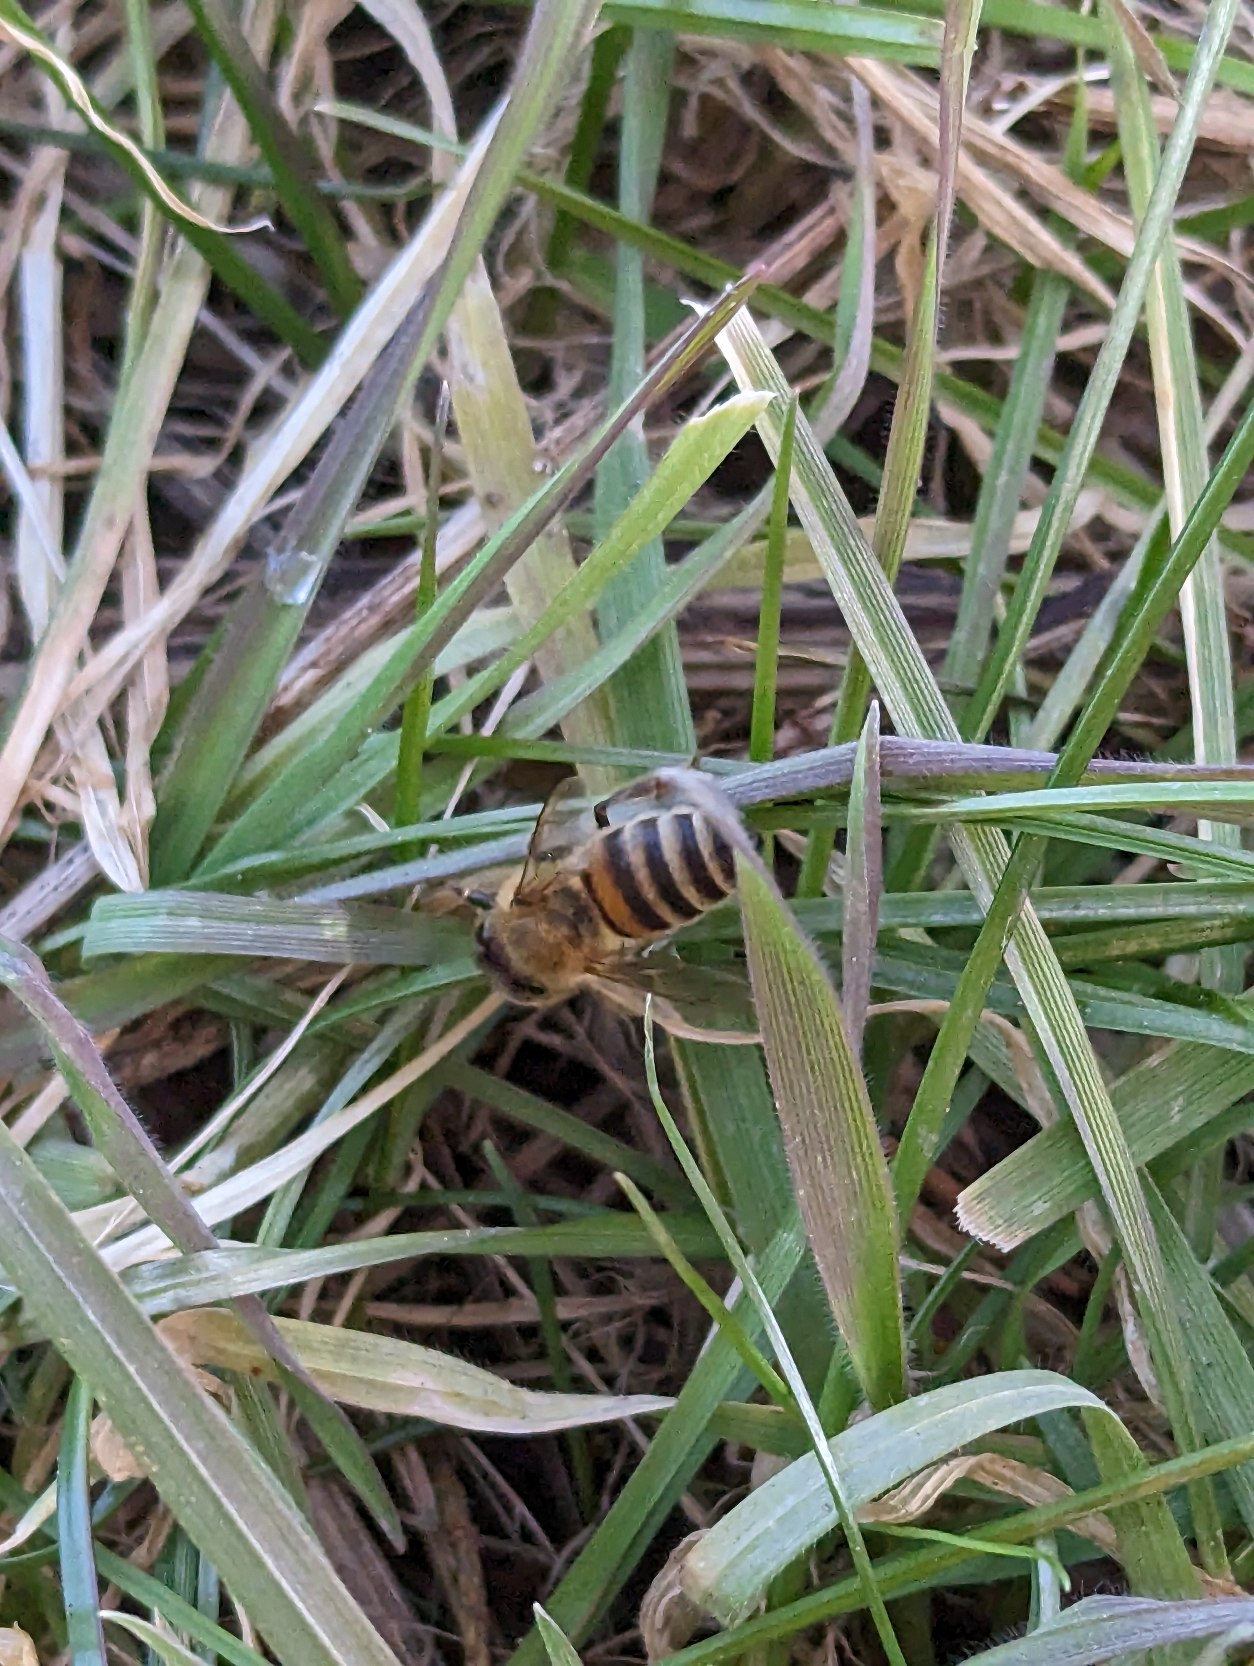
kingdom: Animalia
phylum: Arthropoda
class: Insecta
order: Hymenoptera
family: Apidae
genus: Apis
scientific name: Apis mellifera
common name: Honningbi
